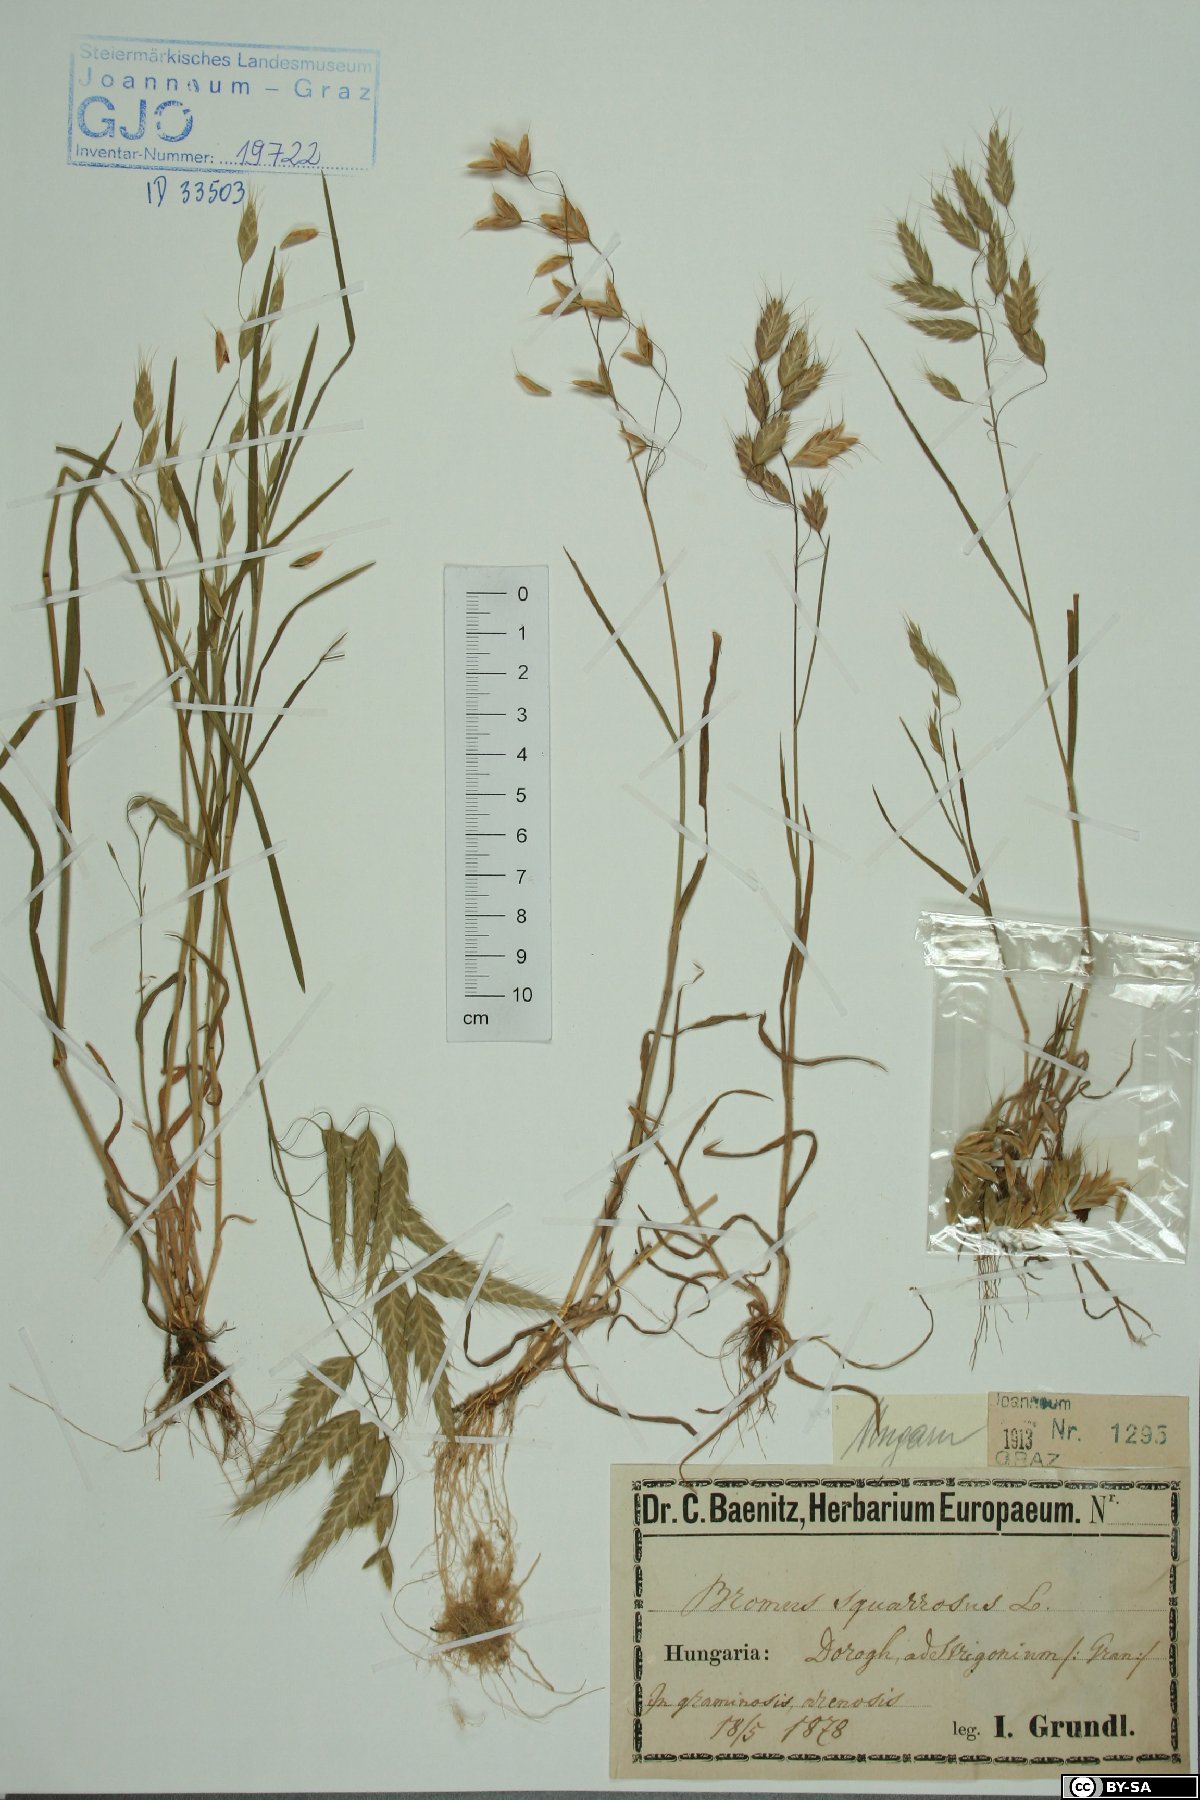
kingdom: Plantae
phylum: Tracheophyta
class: Liliopsida
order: Poales
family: Poaceae
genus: Bromus
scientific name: Bromus squarrosus
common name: Corn brome
